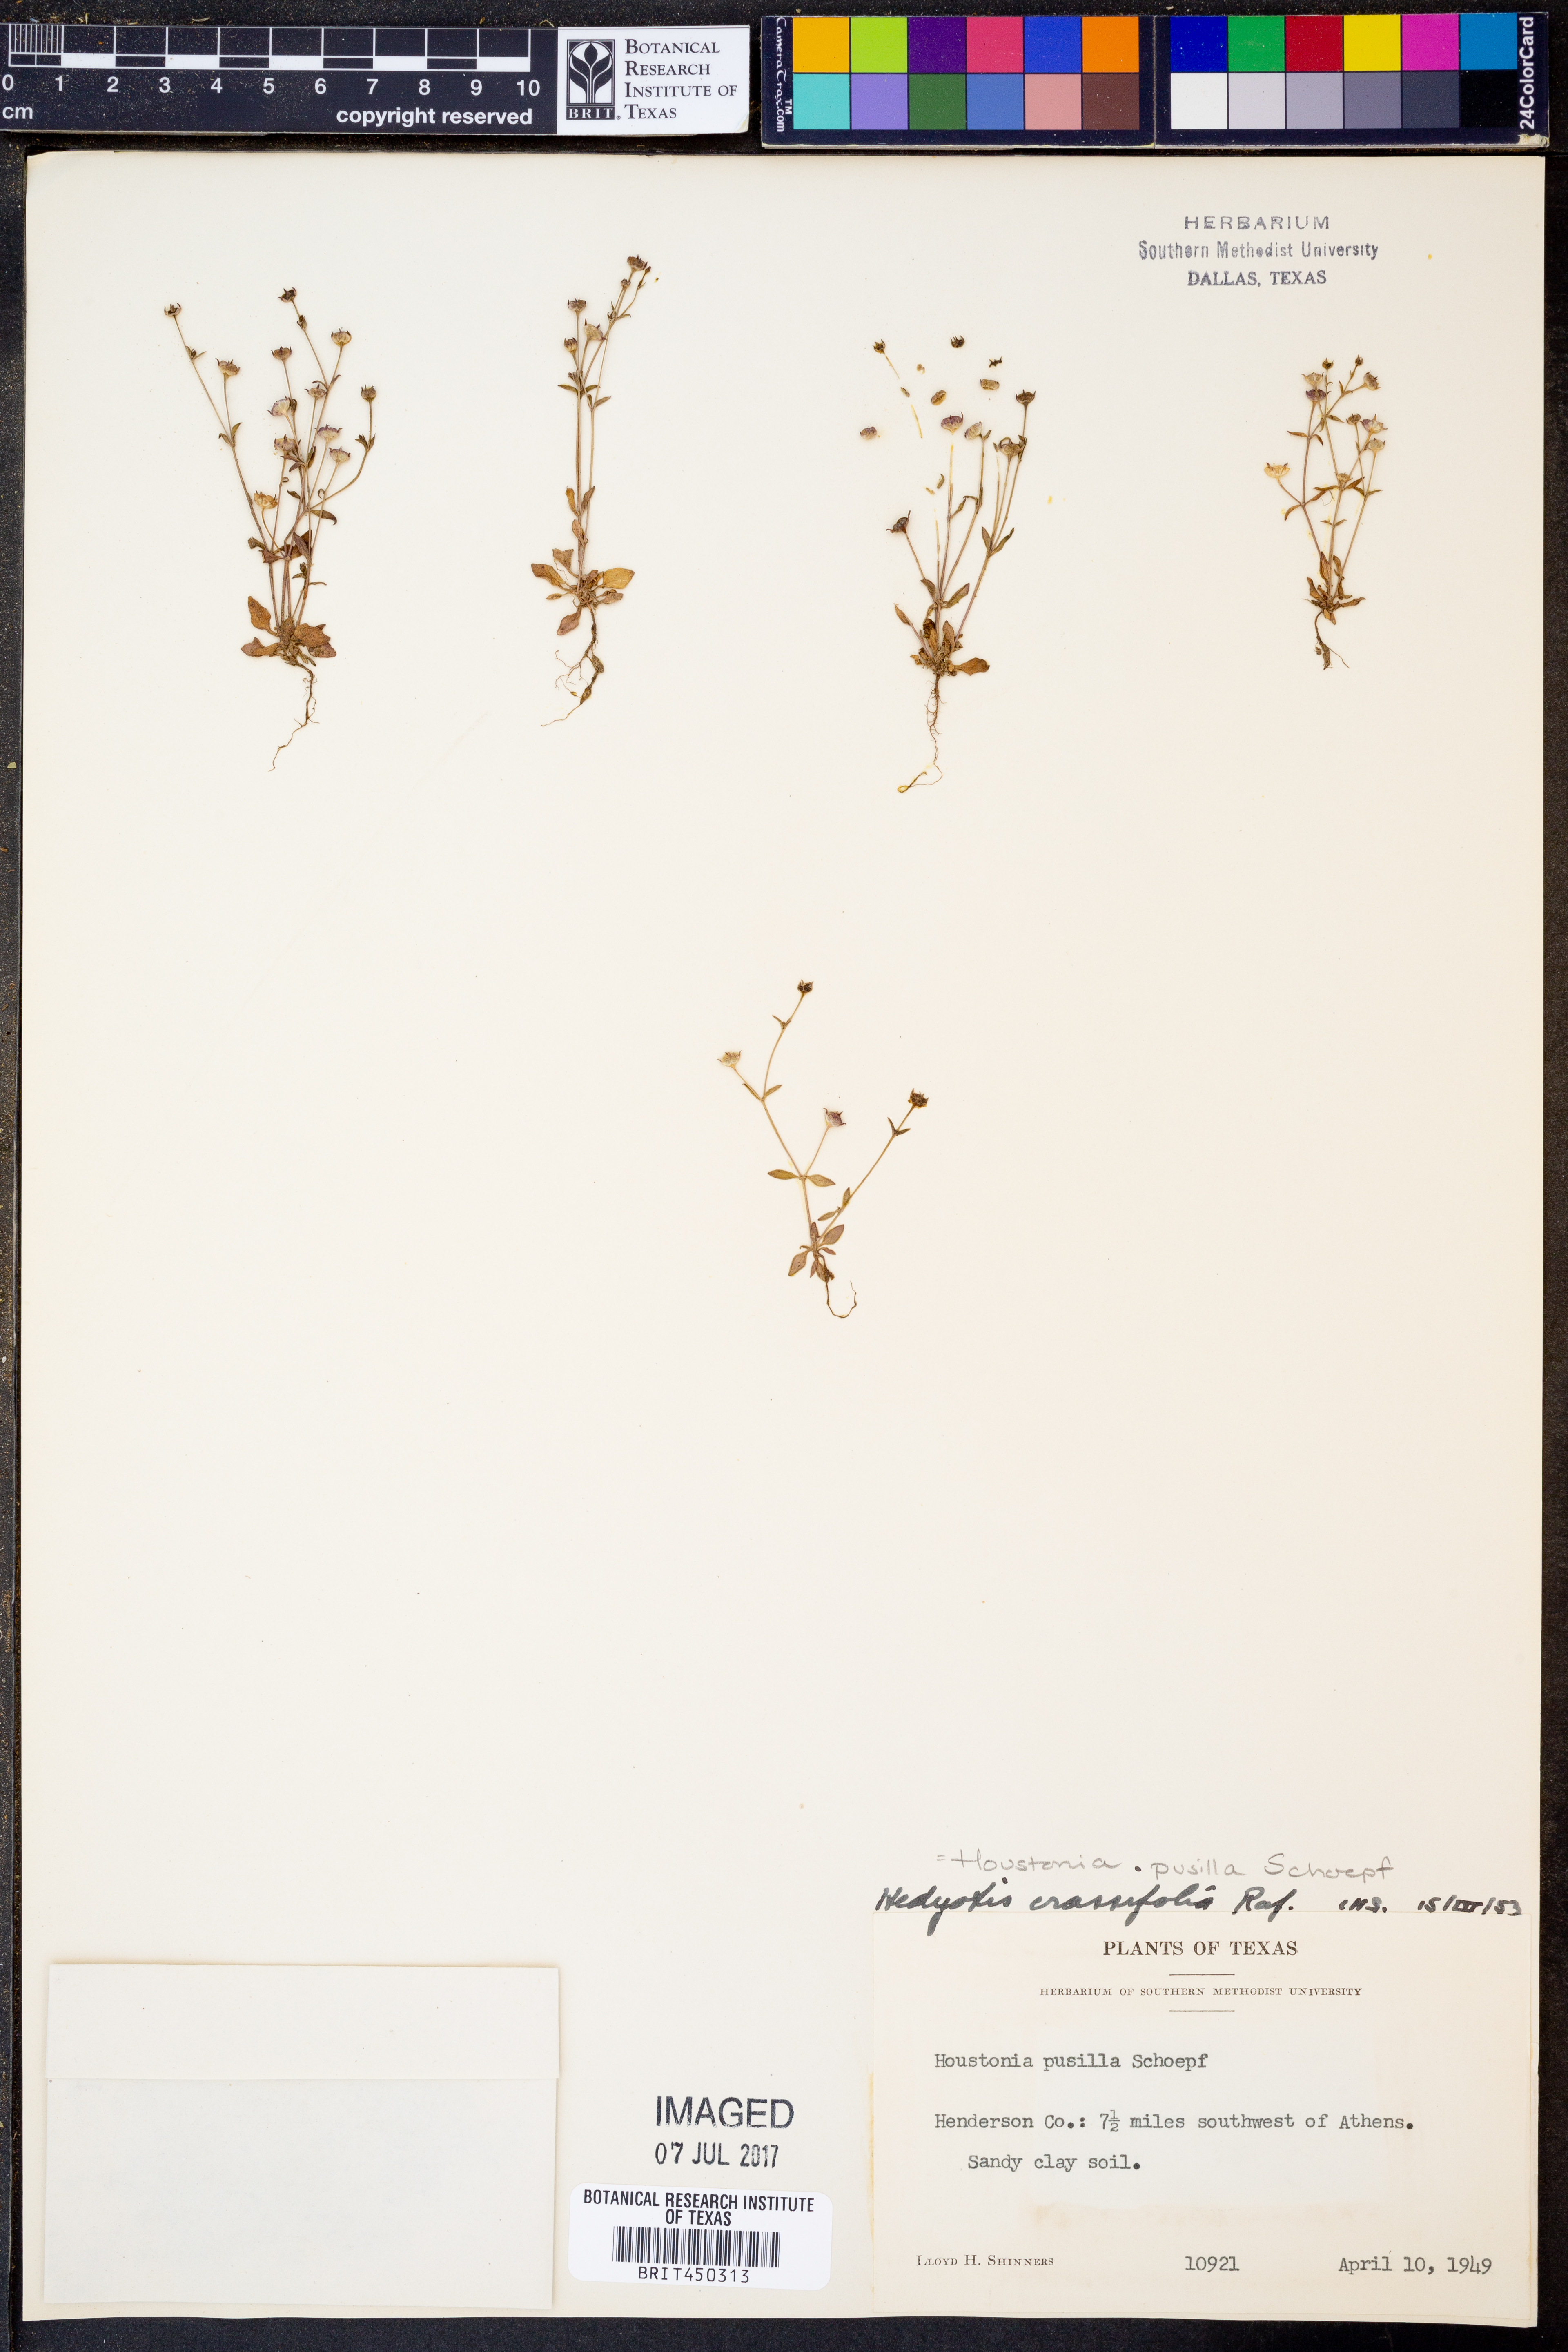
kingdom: Plantae
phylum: Tracheophyta
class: Magnoliopsida
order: Gentianales
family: Rubiaceae
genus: Houstonia
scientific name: Houstonia pusilla
